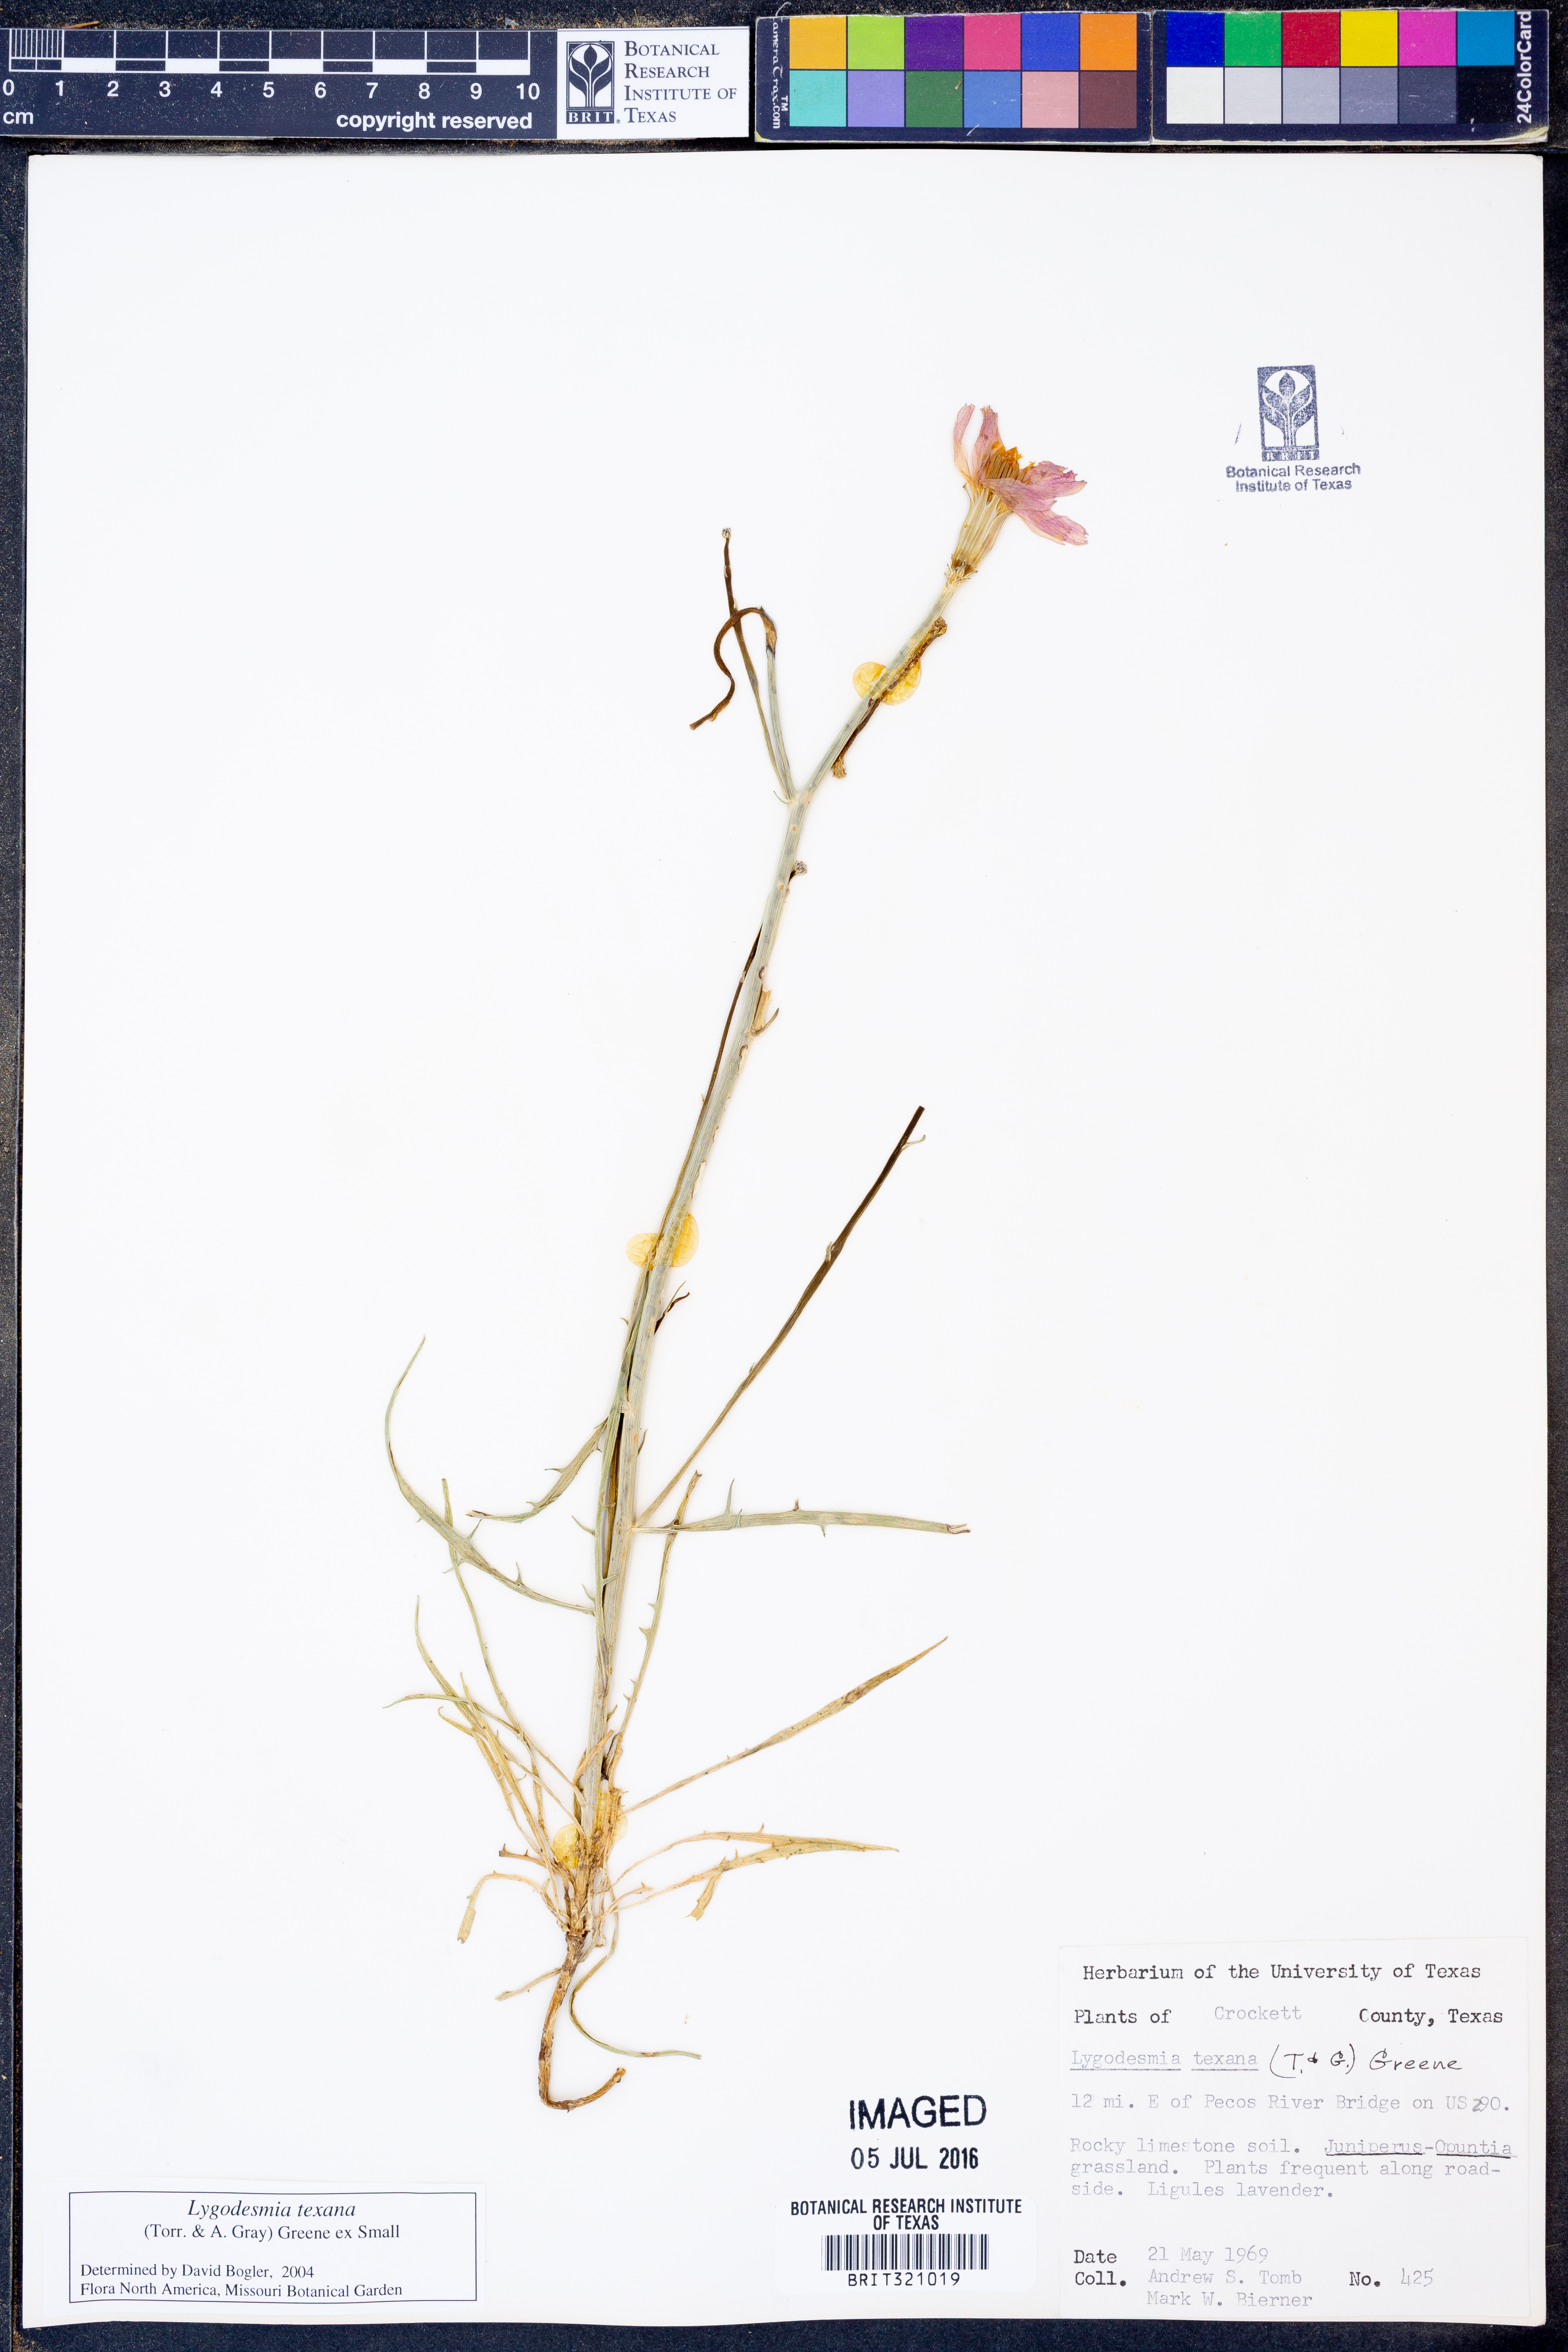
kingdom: Plantae
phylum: Tracheophyta
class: Magnoliopsida
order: Asterales
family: Asteraceae
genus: Lygodesmia
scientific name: Lygodesmia texana
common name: Texas skeleton-plant
